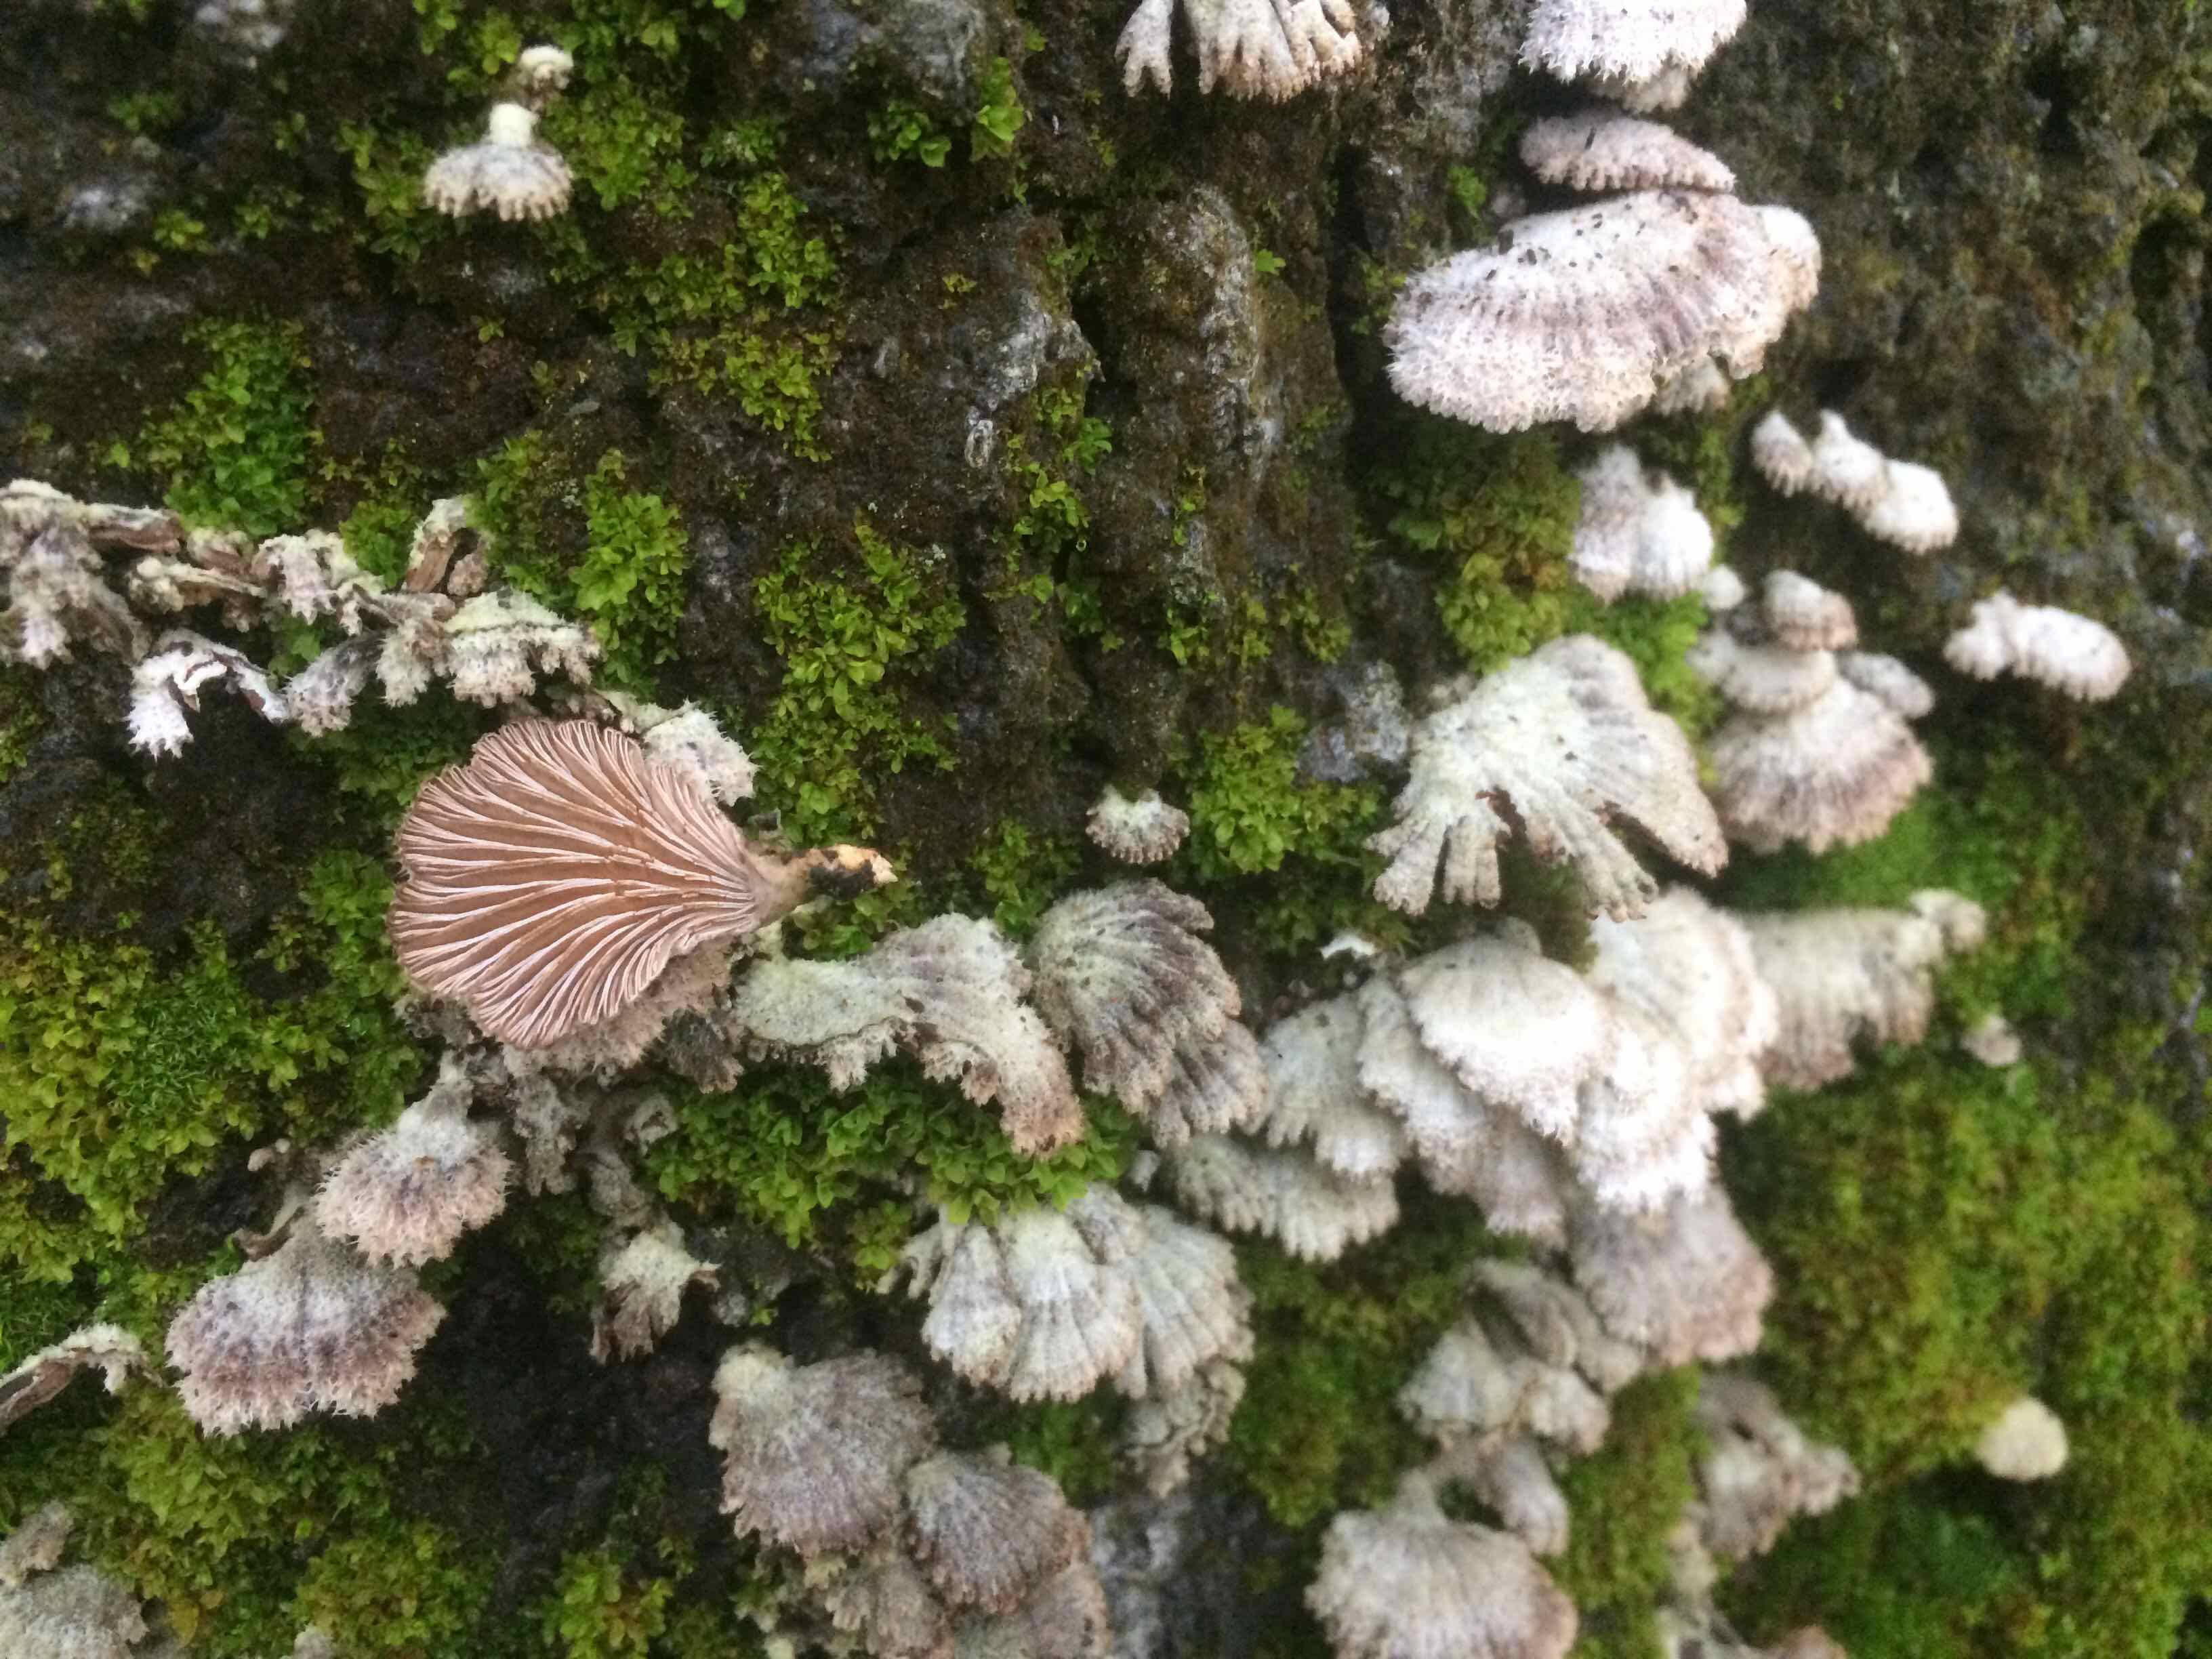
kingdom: Fungi
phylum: Basidiomycota
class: Agaricomycetes
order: Agaricales
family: Schizophyllaceae
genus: Schizophyllum
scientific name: Schizophyllum commune
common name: kløvblad
